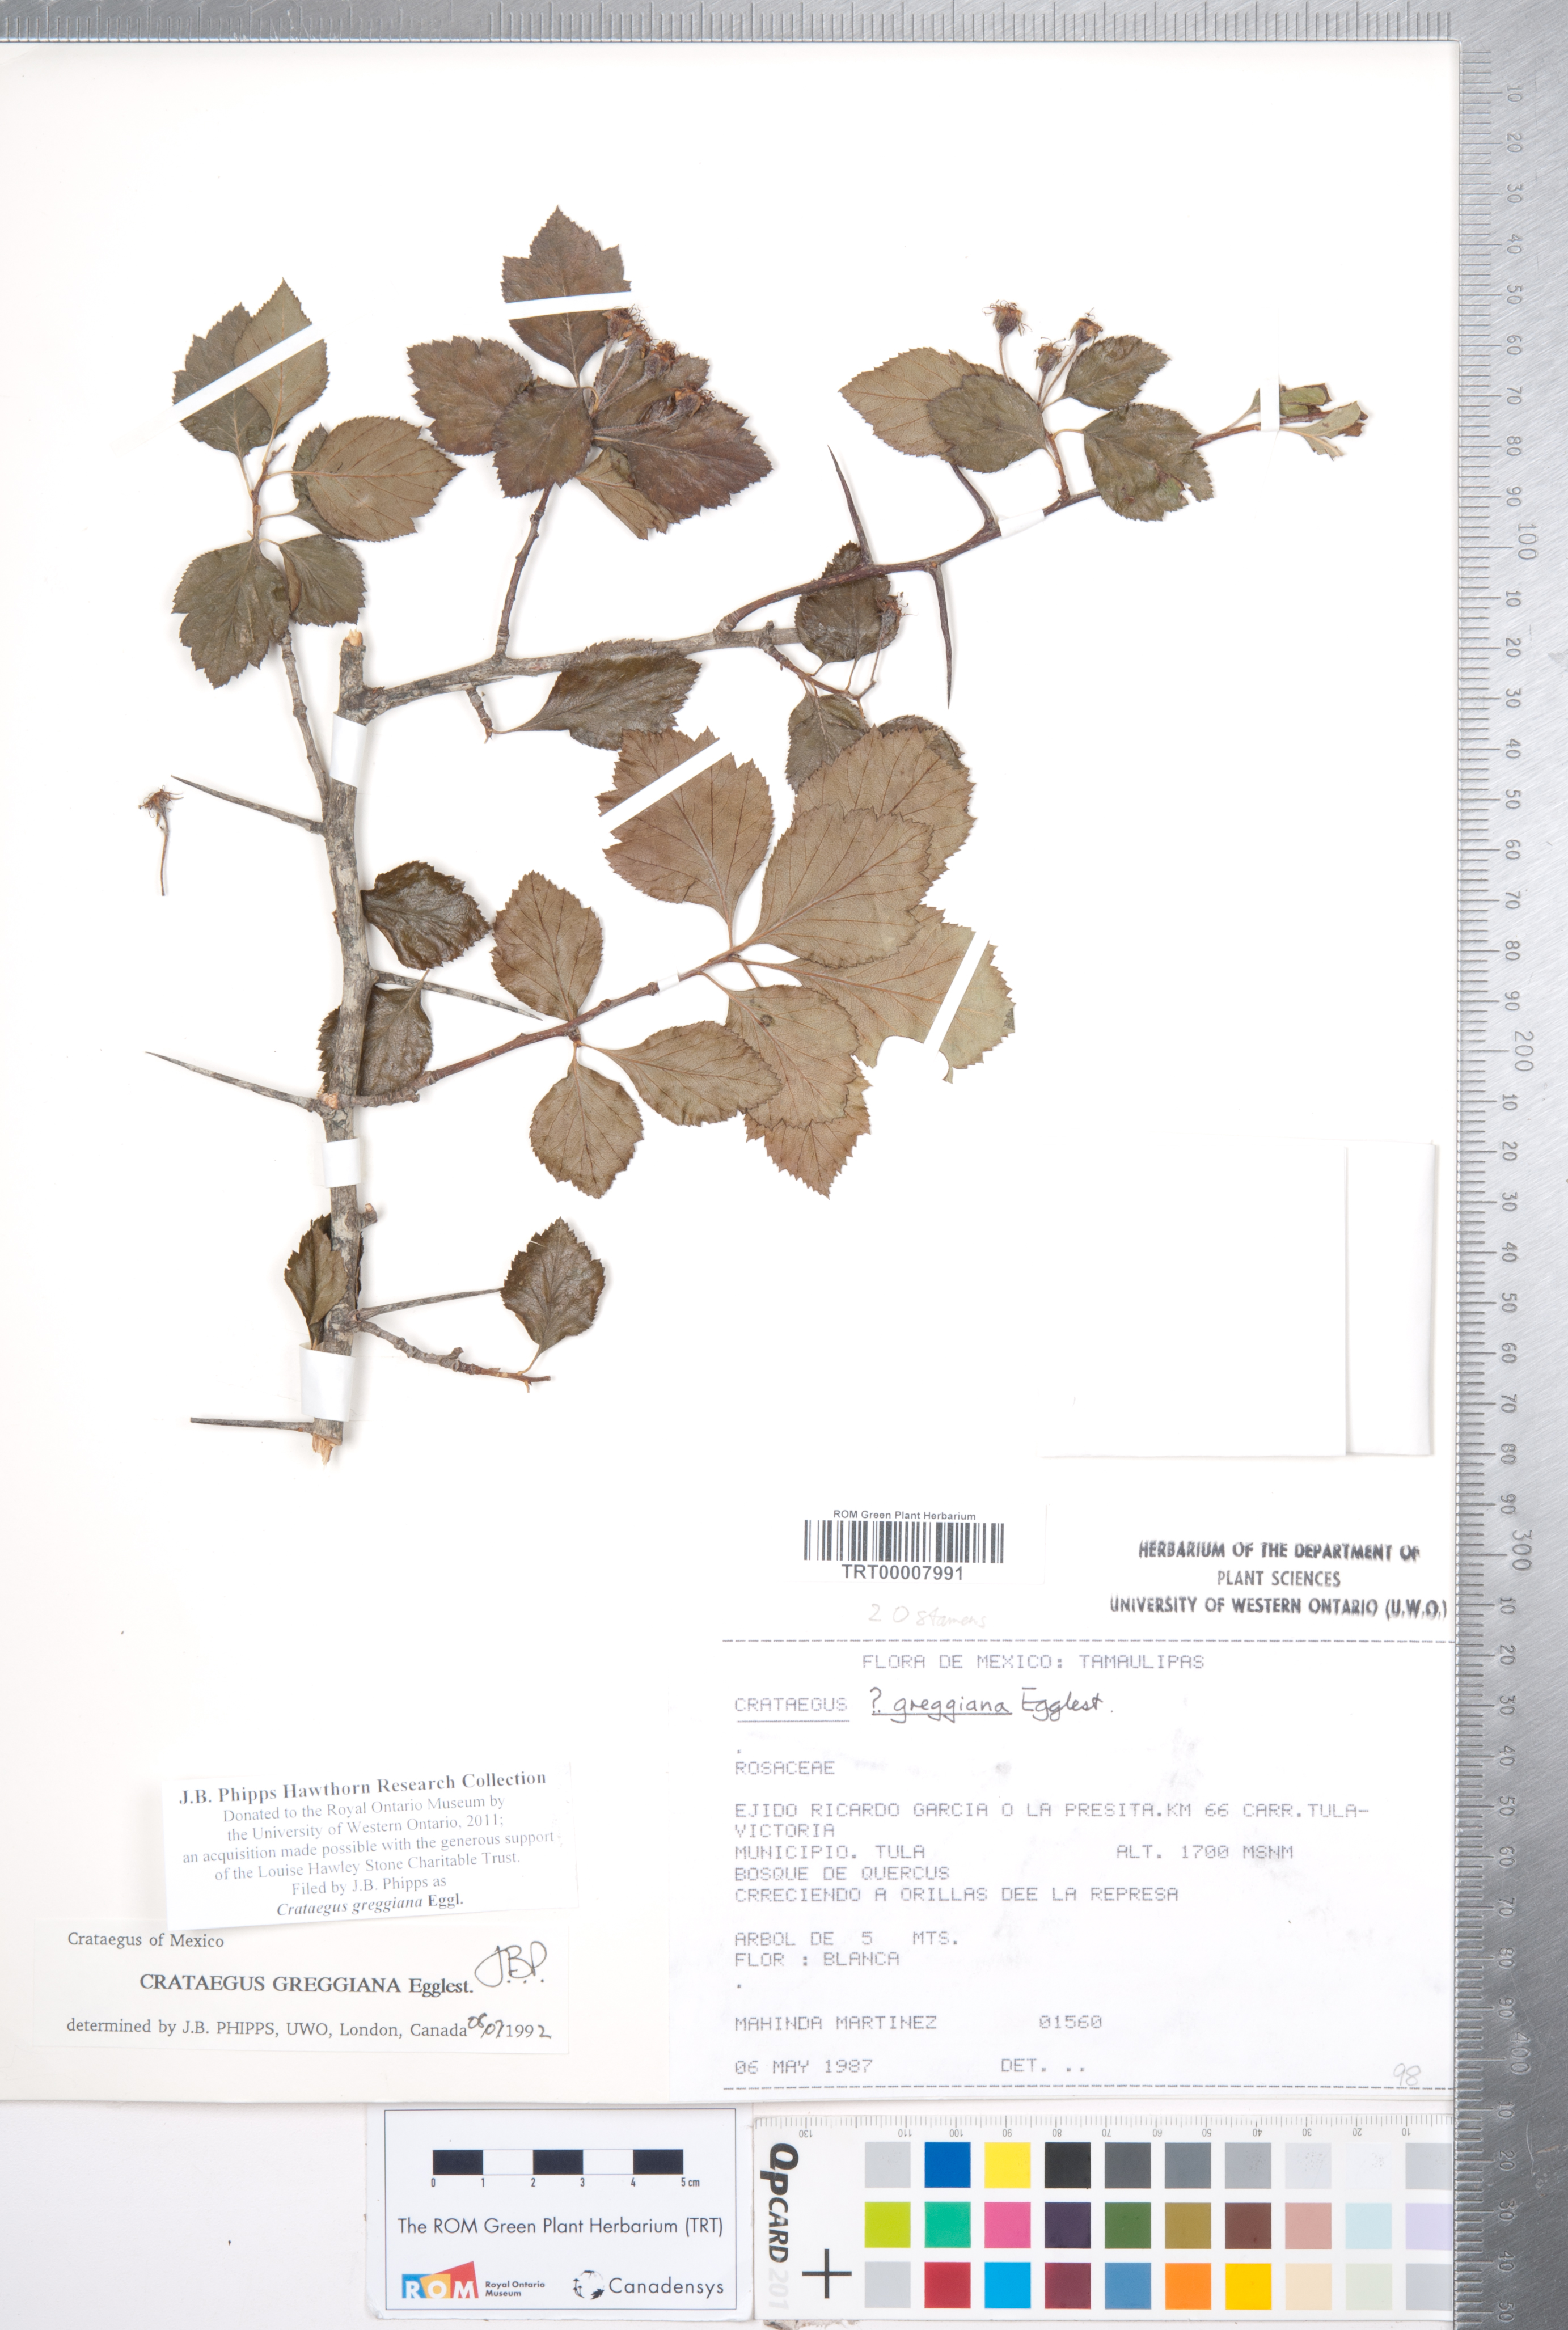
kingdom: Plantae
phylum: Tracheophyta
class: Magnoliopsida
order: Rosales
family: Rosaceae
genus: Crataegus
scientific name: Crataegus greggiana
